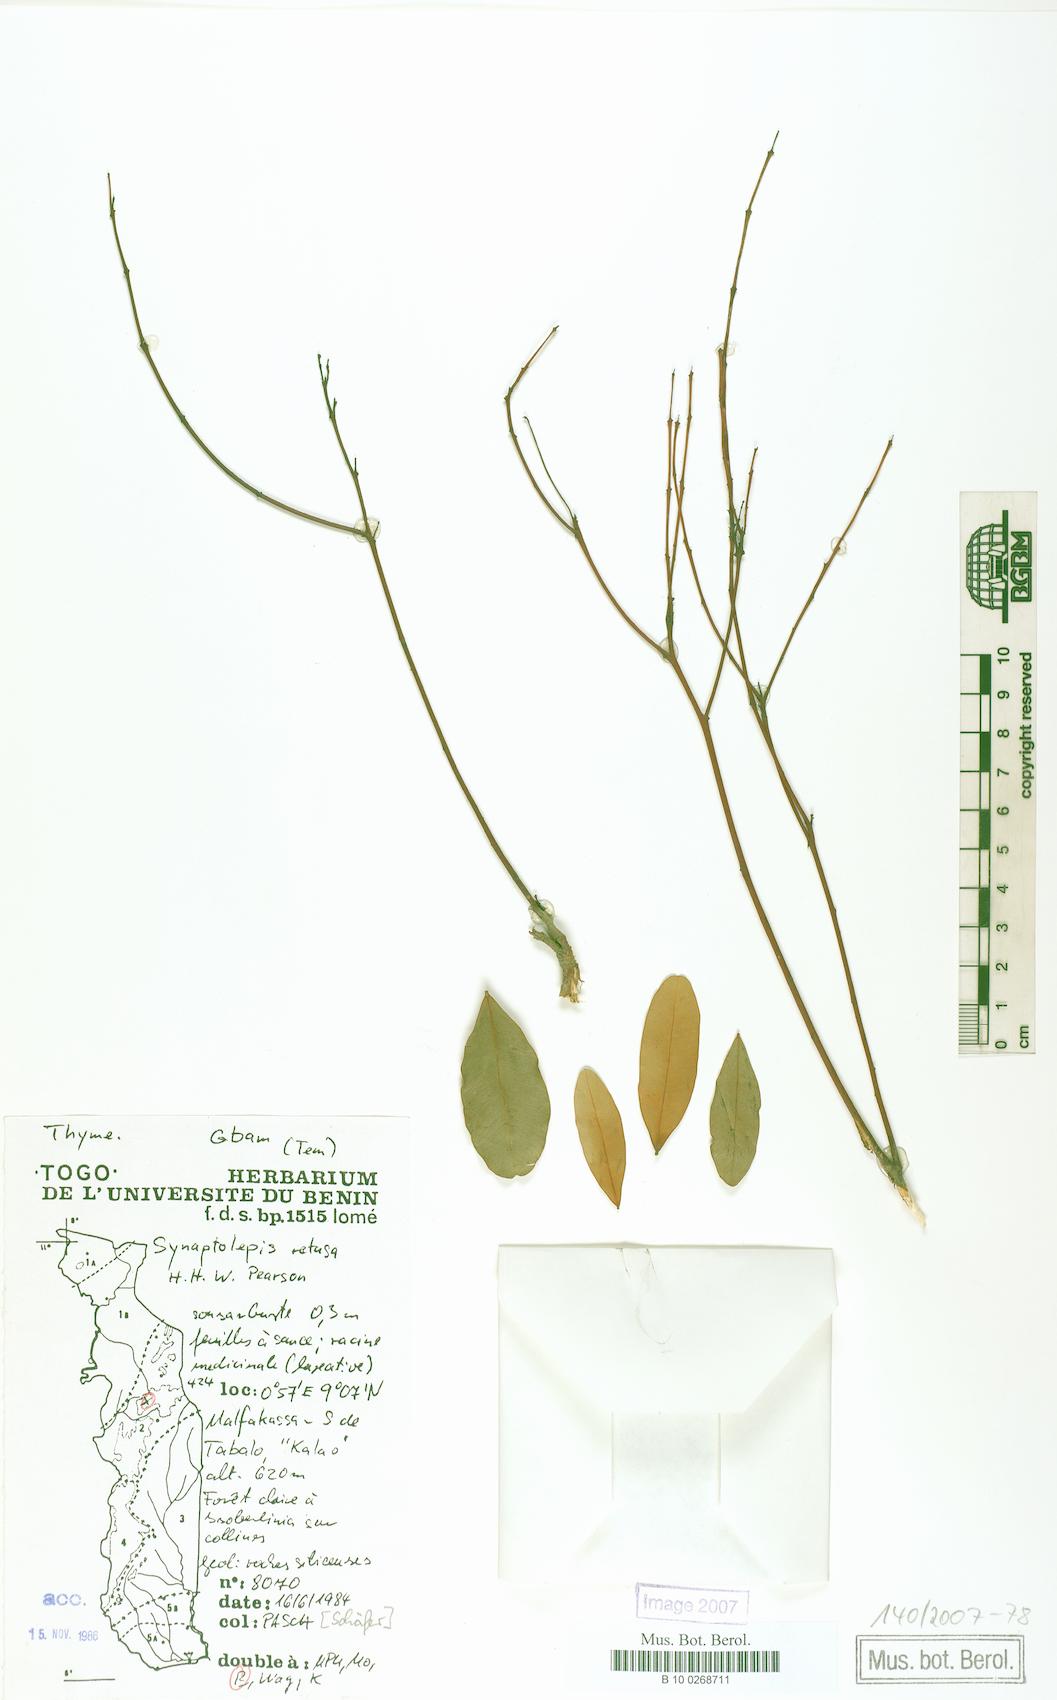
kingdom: Plantae
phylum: Tracheophyta
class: Magnoliopsida
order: Malvales
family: Thymelaeaceae
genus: Synaptolepis
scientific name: Synaptolepis retusa
